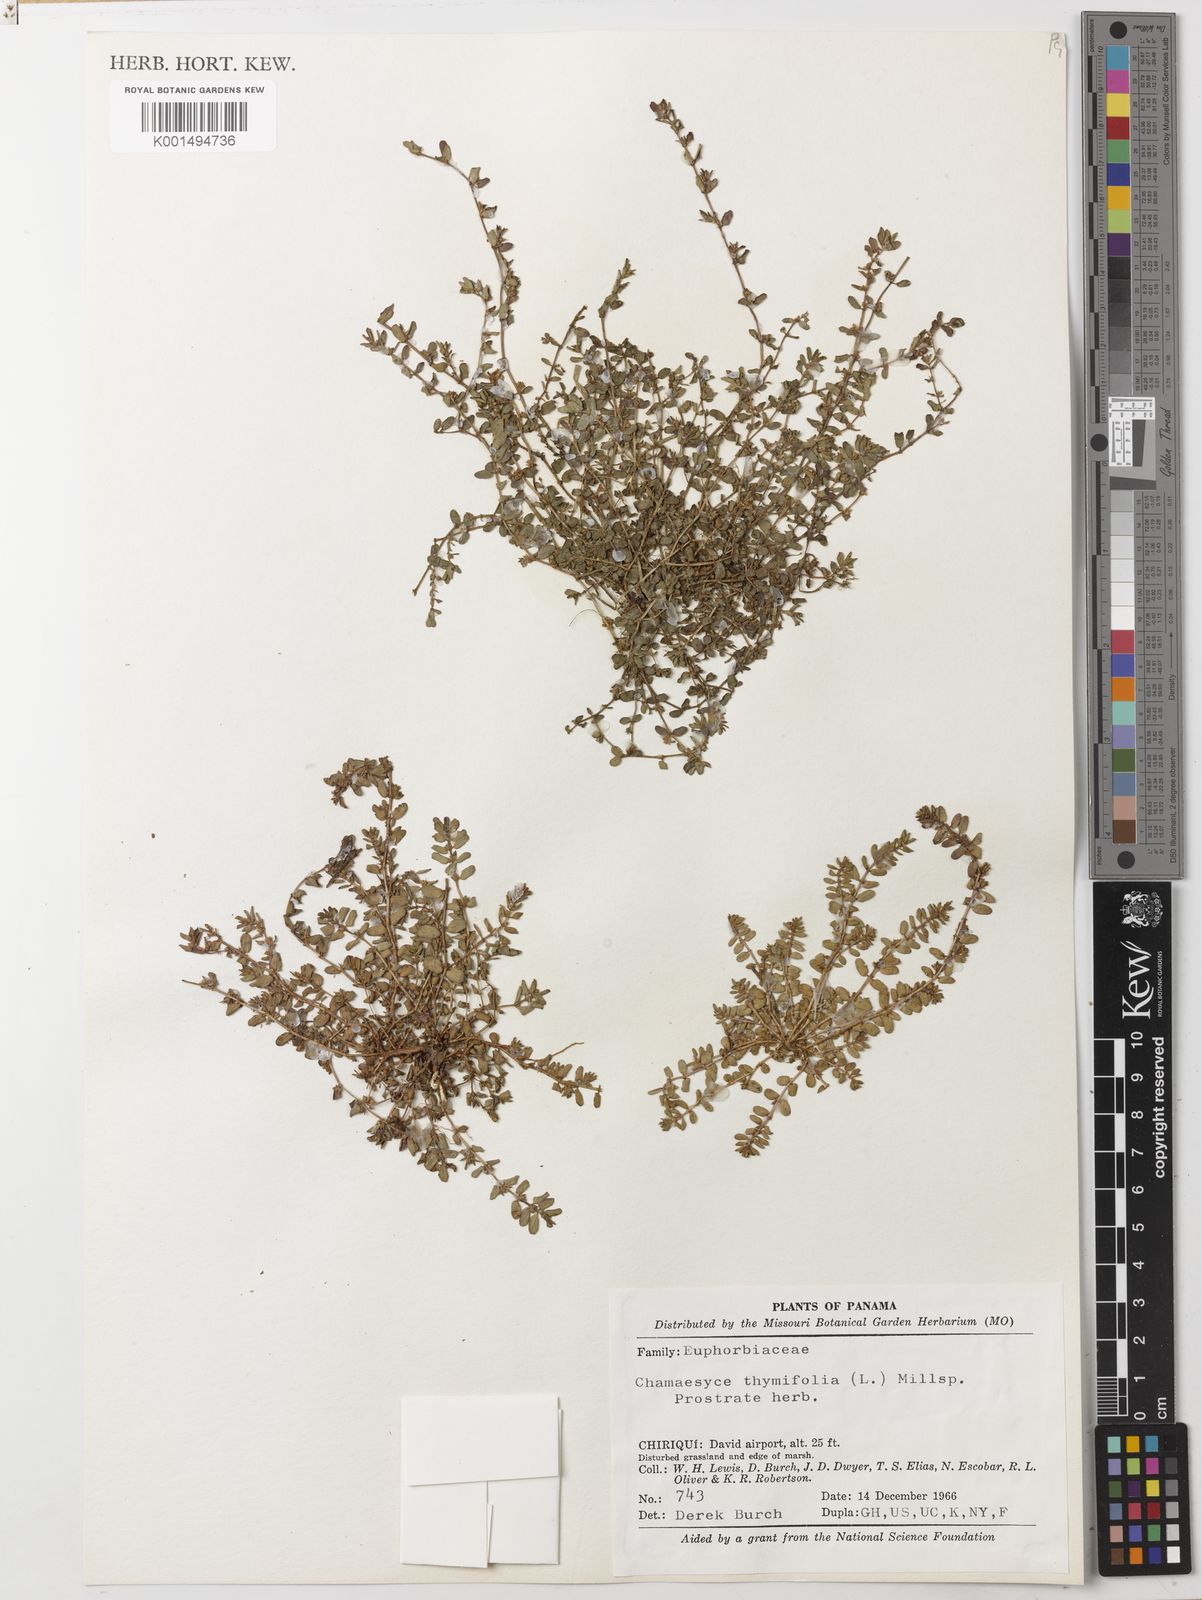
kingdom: Plantae
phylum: Tracheophyta
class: Magnoliopsida
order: Malpighiales
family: Euphorbiaceae
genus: Euphorbia
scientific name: Euphorbia thymifolia
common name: Gulf sandmat
